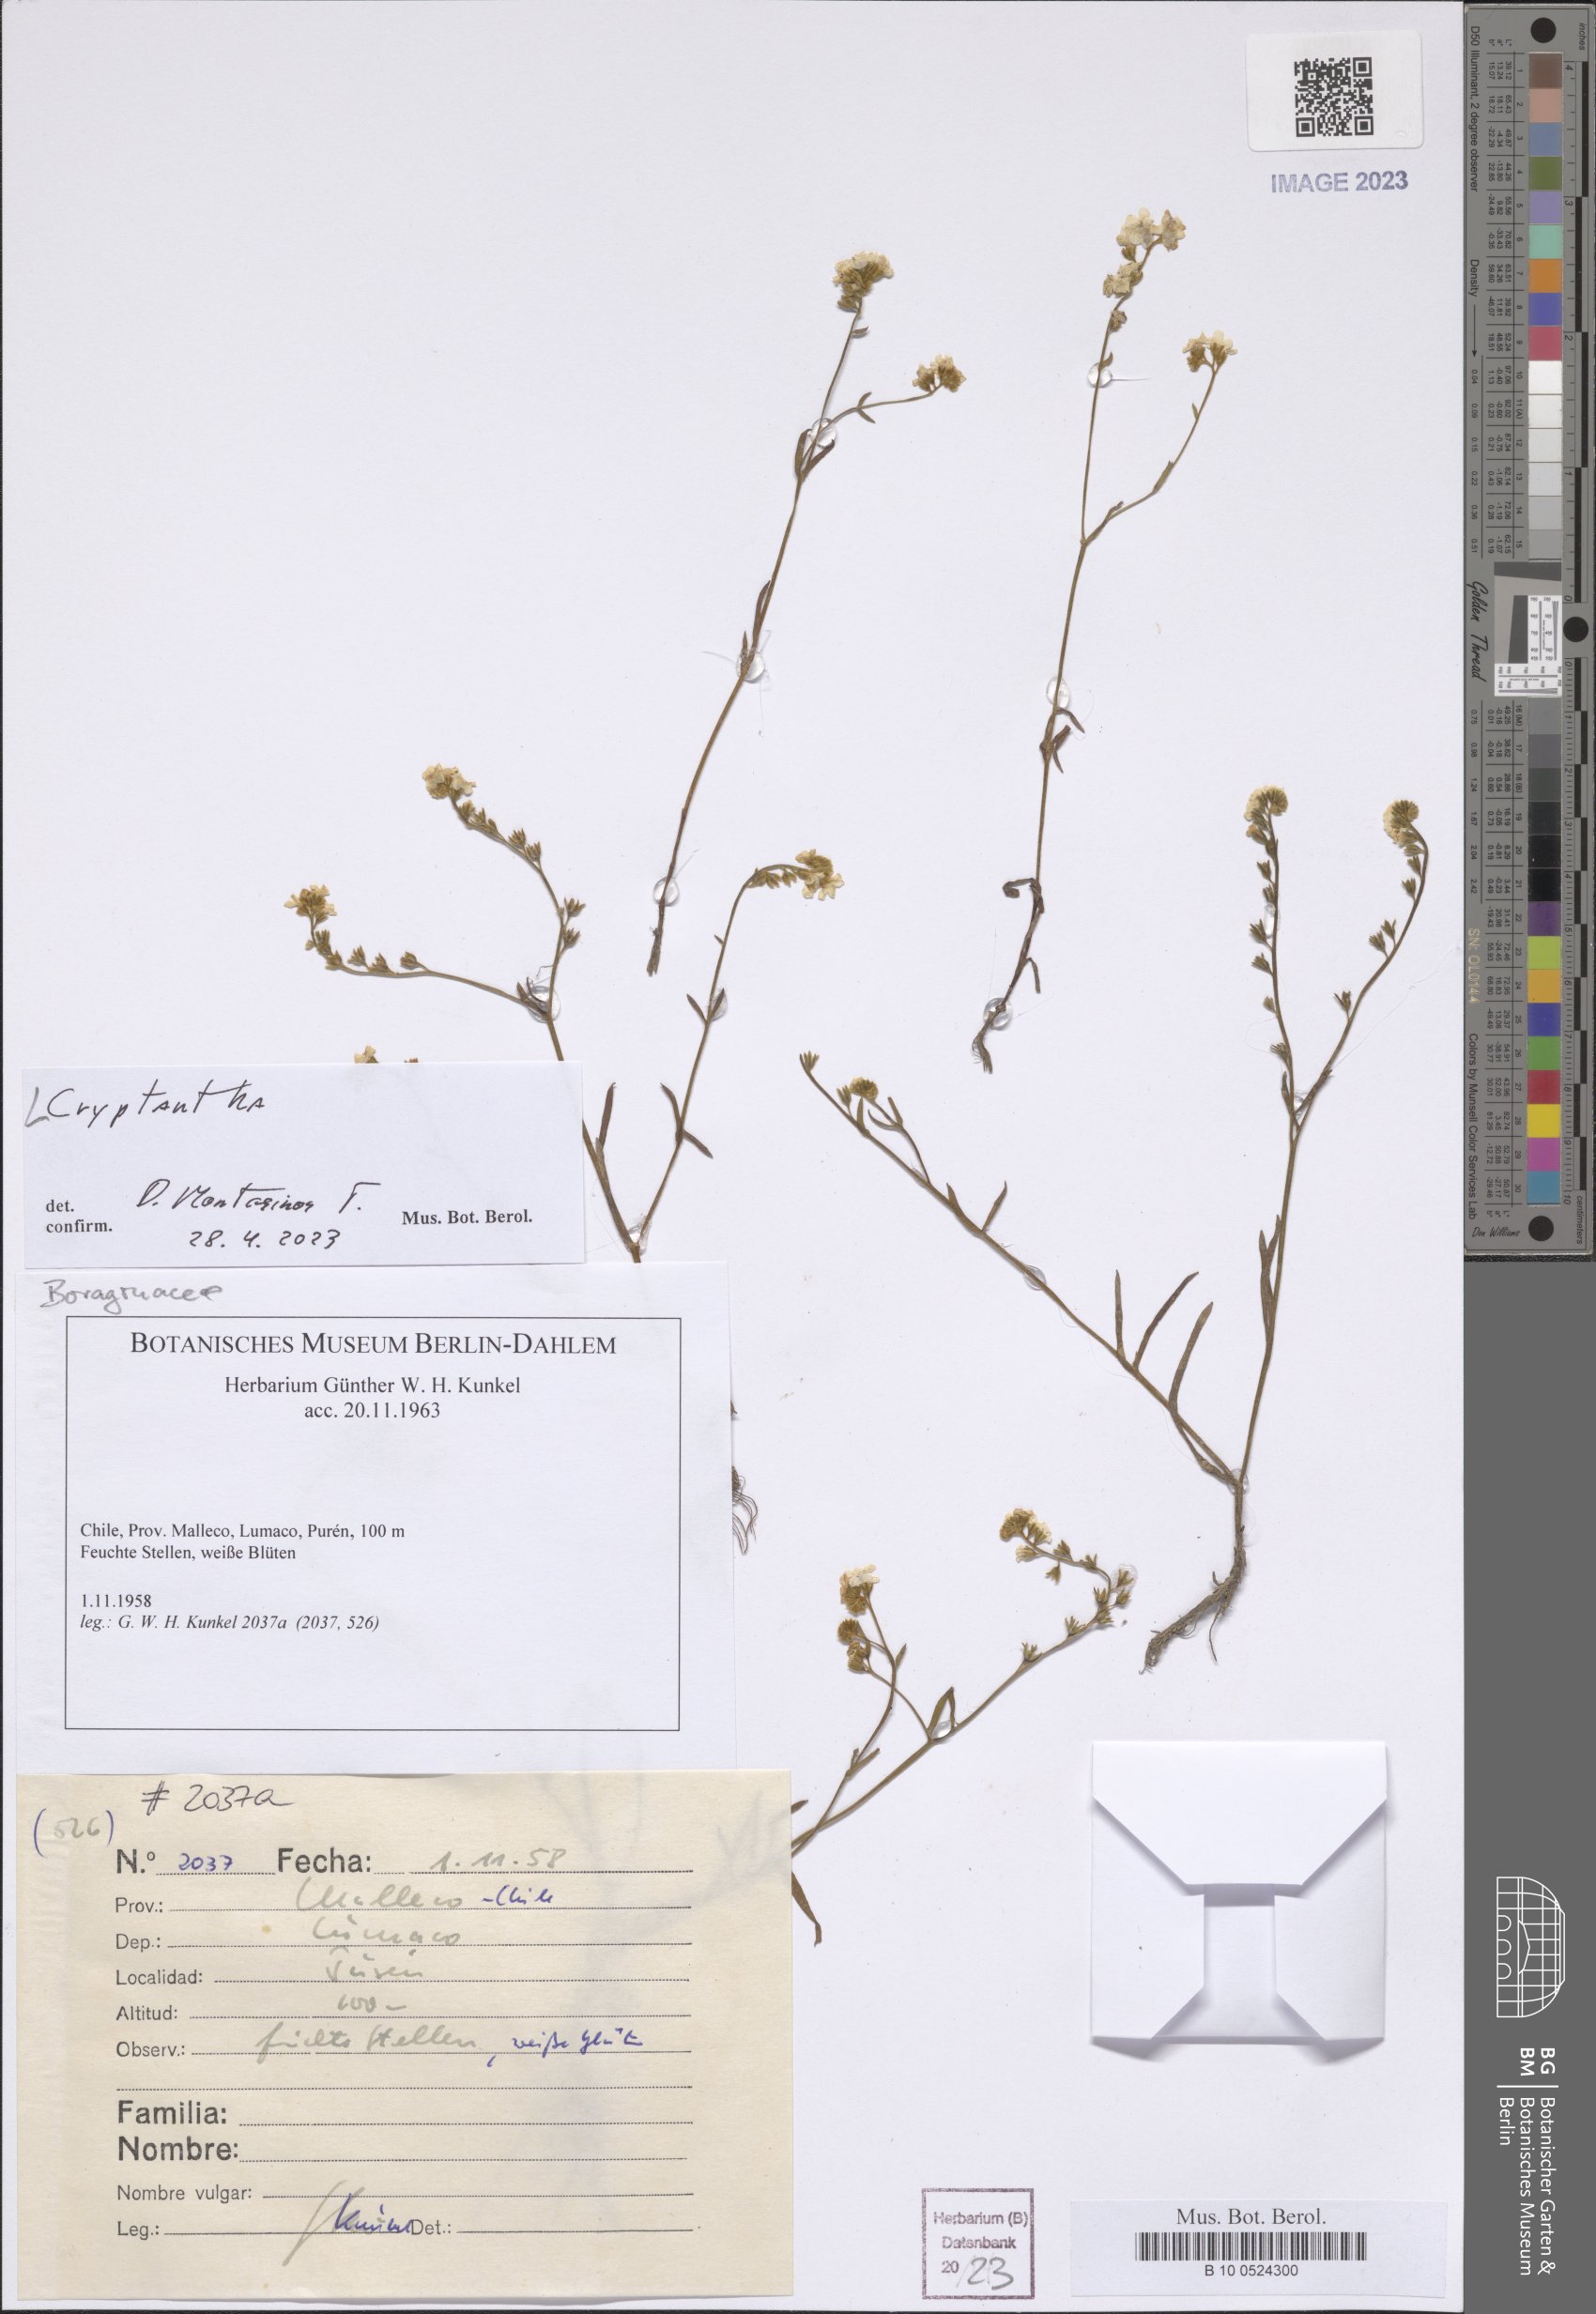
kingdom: Plantae
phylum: Tracheophyta
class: Magnoliopsida
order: Boraginales
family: Boraginaceae
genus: Cryptantha
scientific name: Cryptantha
